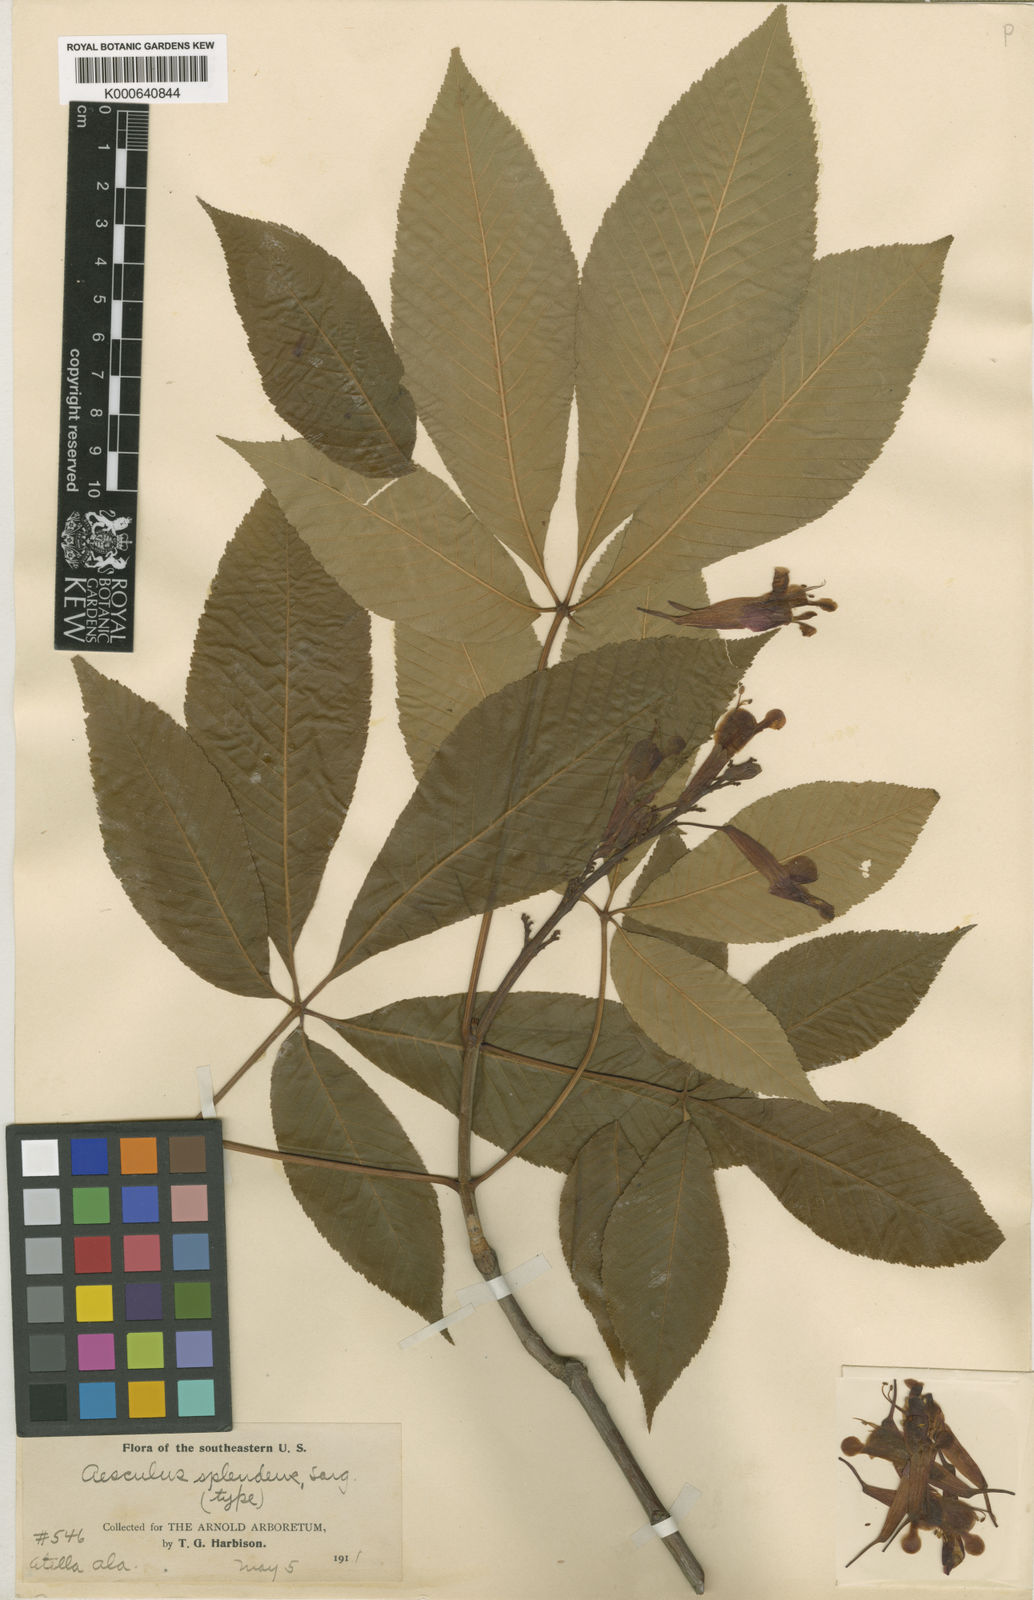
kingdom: Plantae
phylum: Tracheophyta
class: Magnoliopsida
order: Sapindales
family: Sapindaceae
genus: Aesculus
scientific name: Aesculus pavia
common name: Red buckeye
